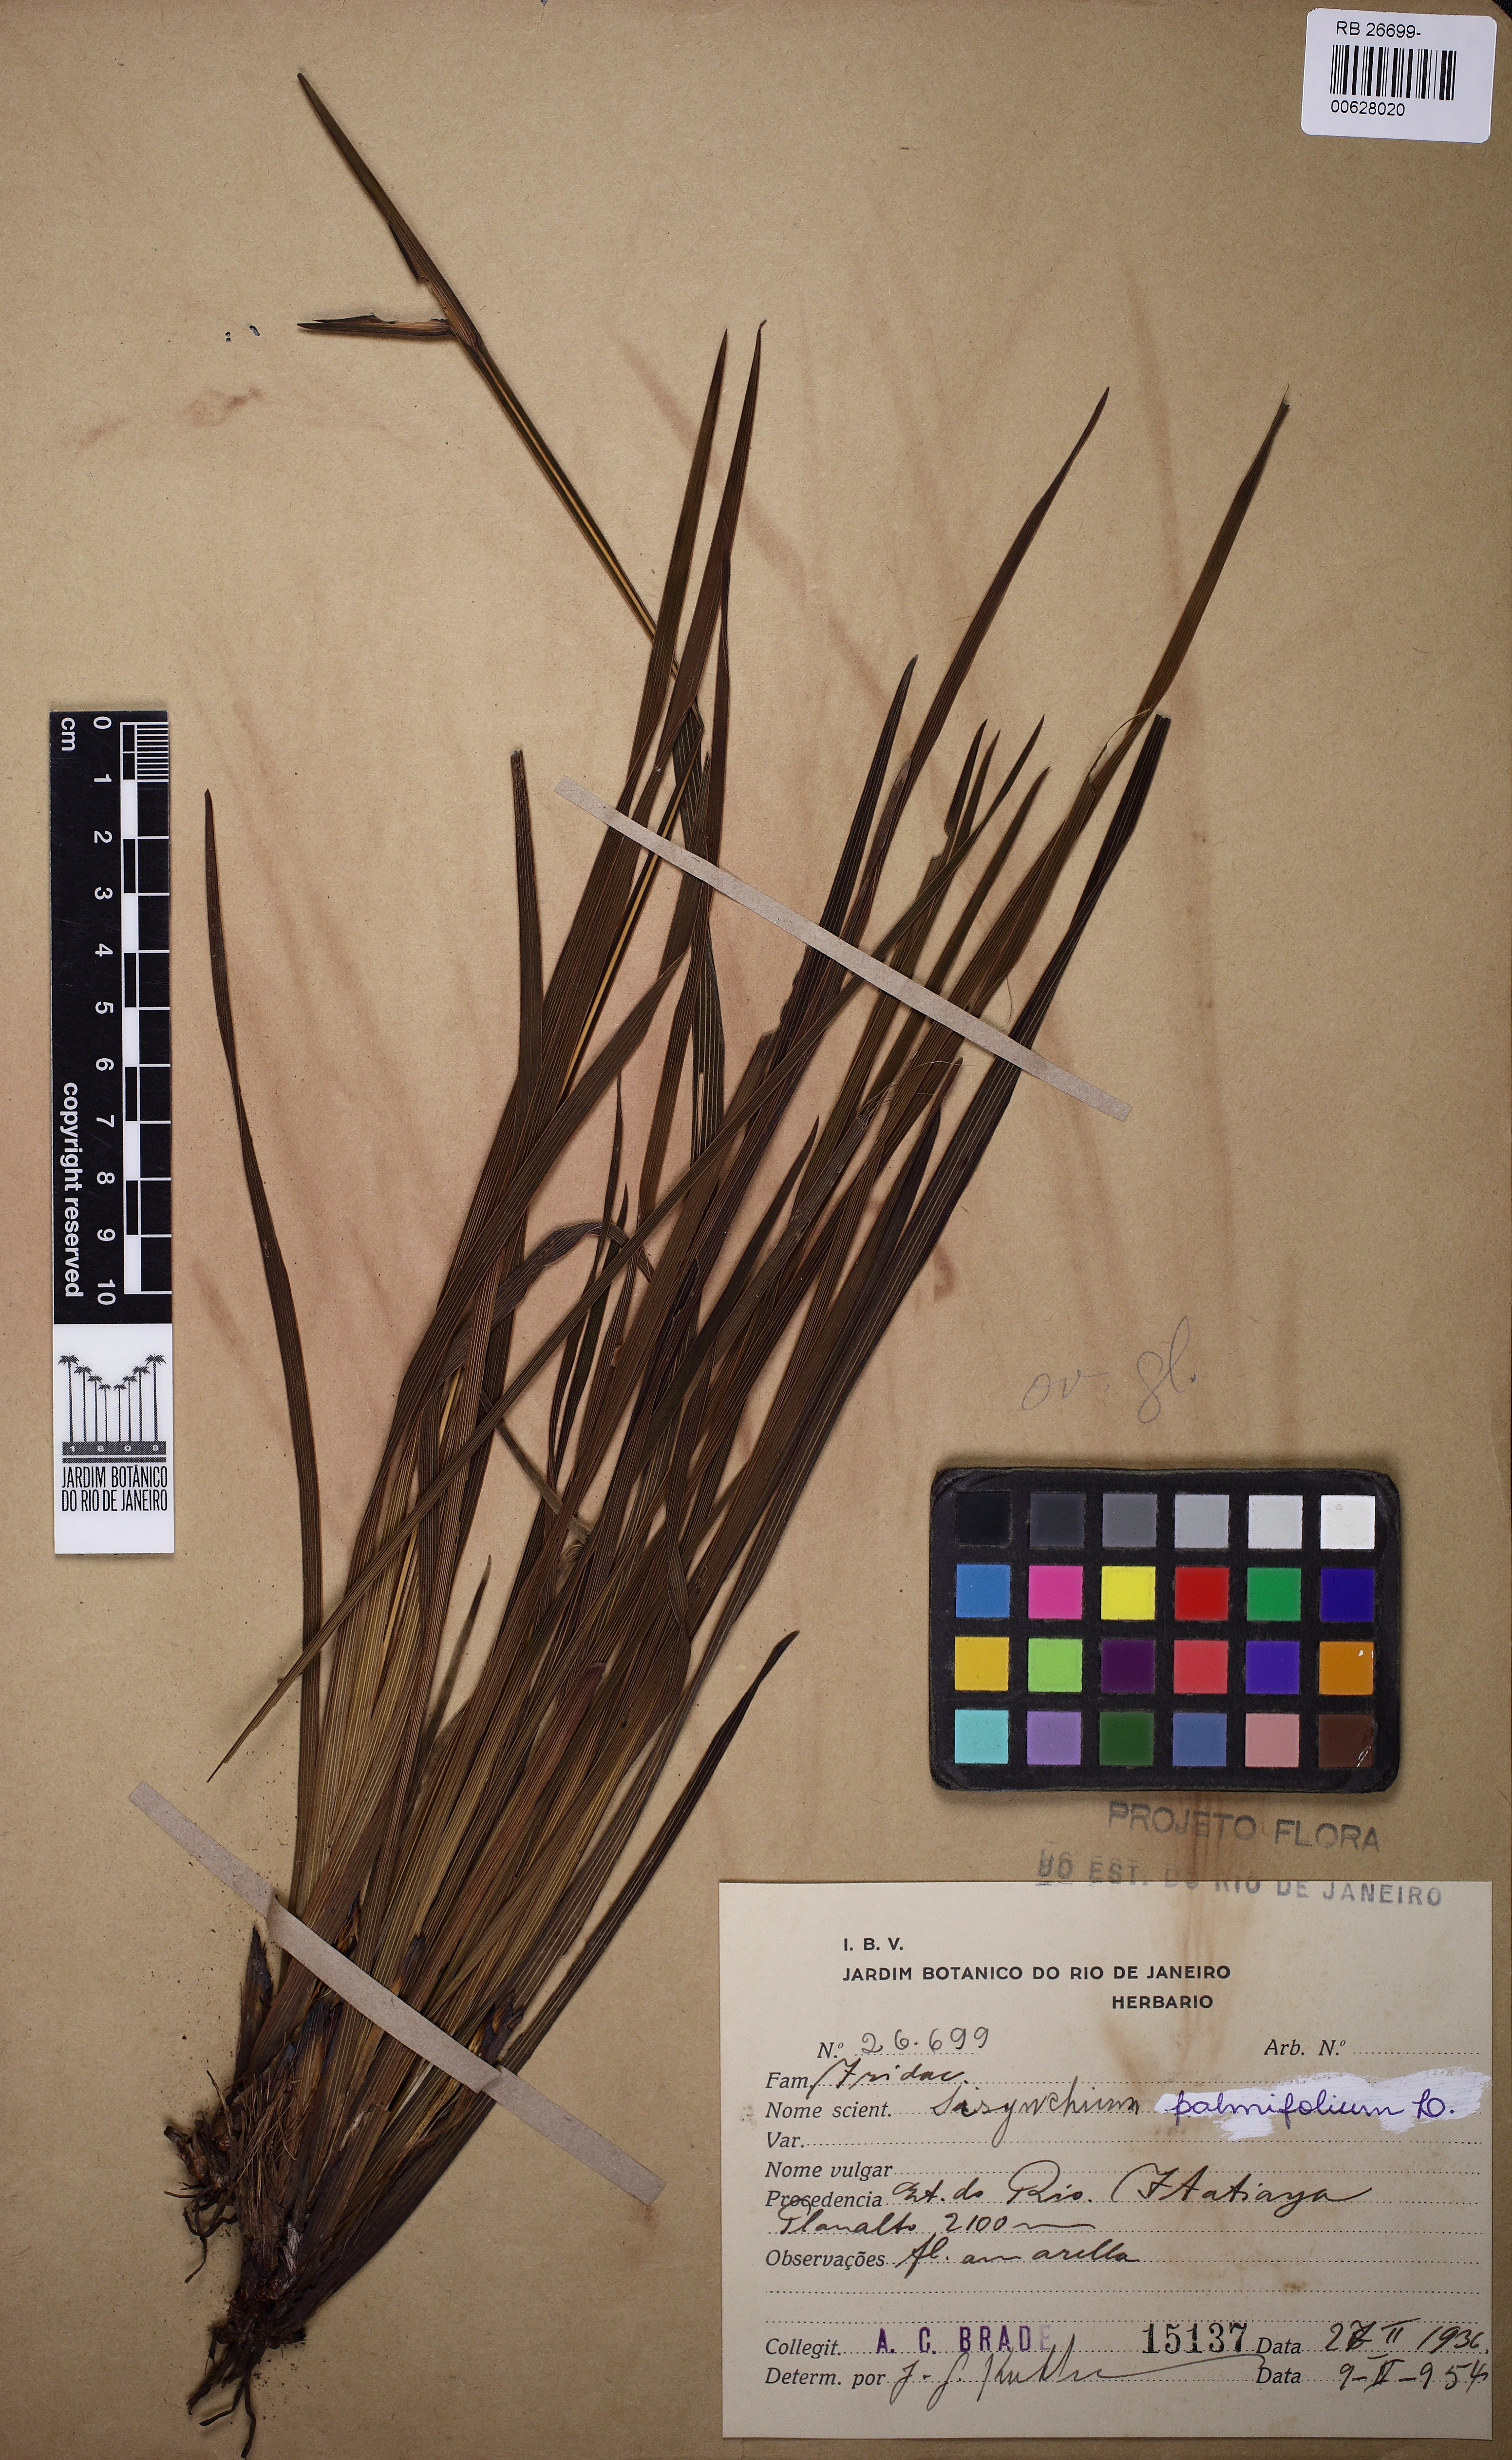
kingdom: Plantae
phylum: Tracheophyta
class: Liliopsida
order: Asparagales
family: Iridaceae
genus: Sisyrinchium
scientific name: Sisyrinchium palmifolium
